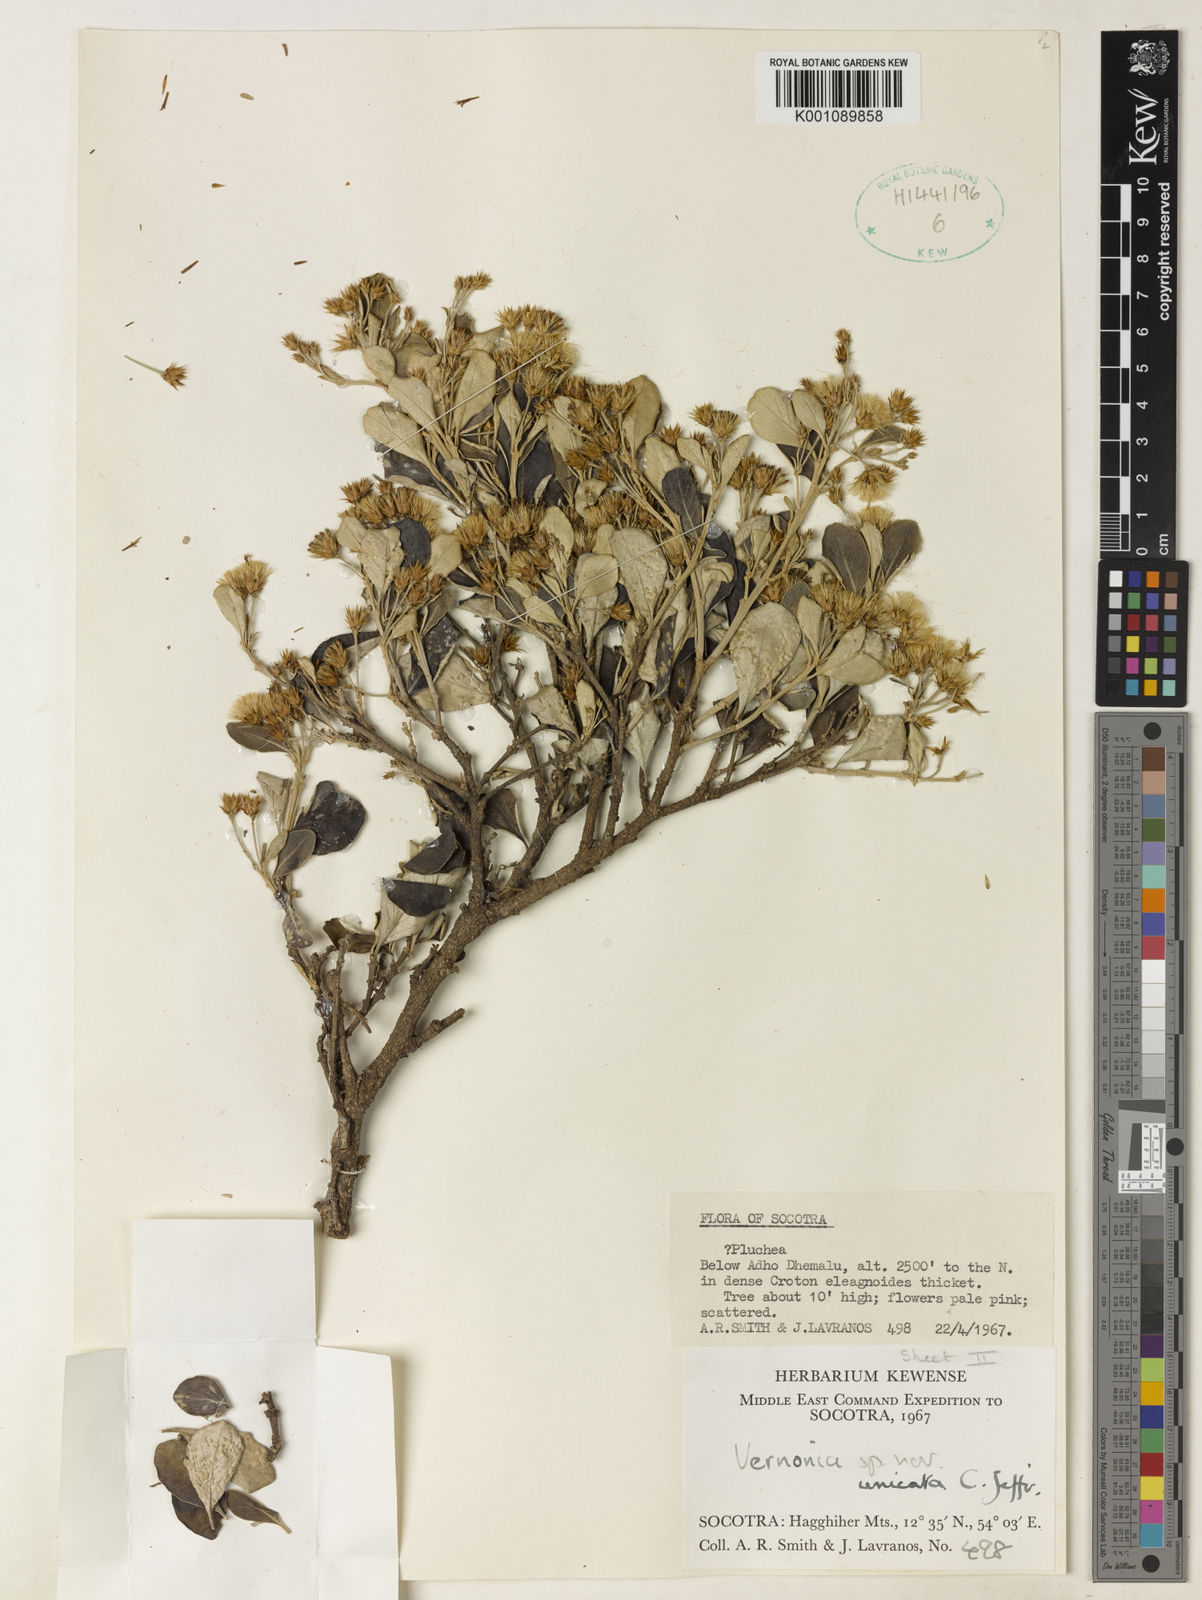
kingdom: Plantae
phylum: Tracheophyta
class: Magnoliopsida
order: Asterales
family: Asteraceae
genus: Vernonia
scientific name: Vernonia unicata
